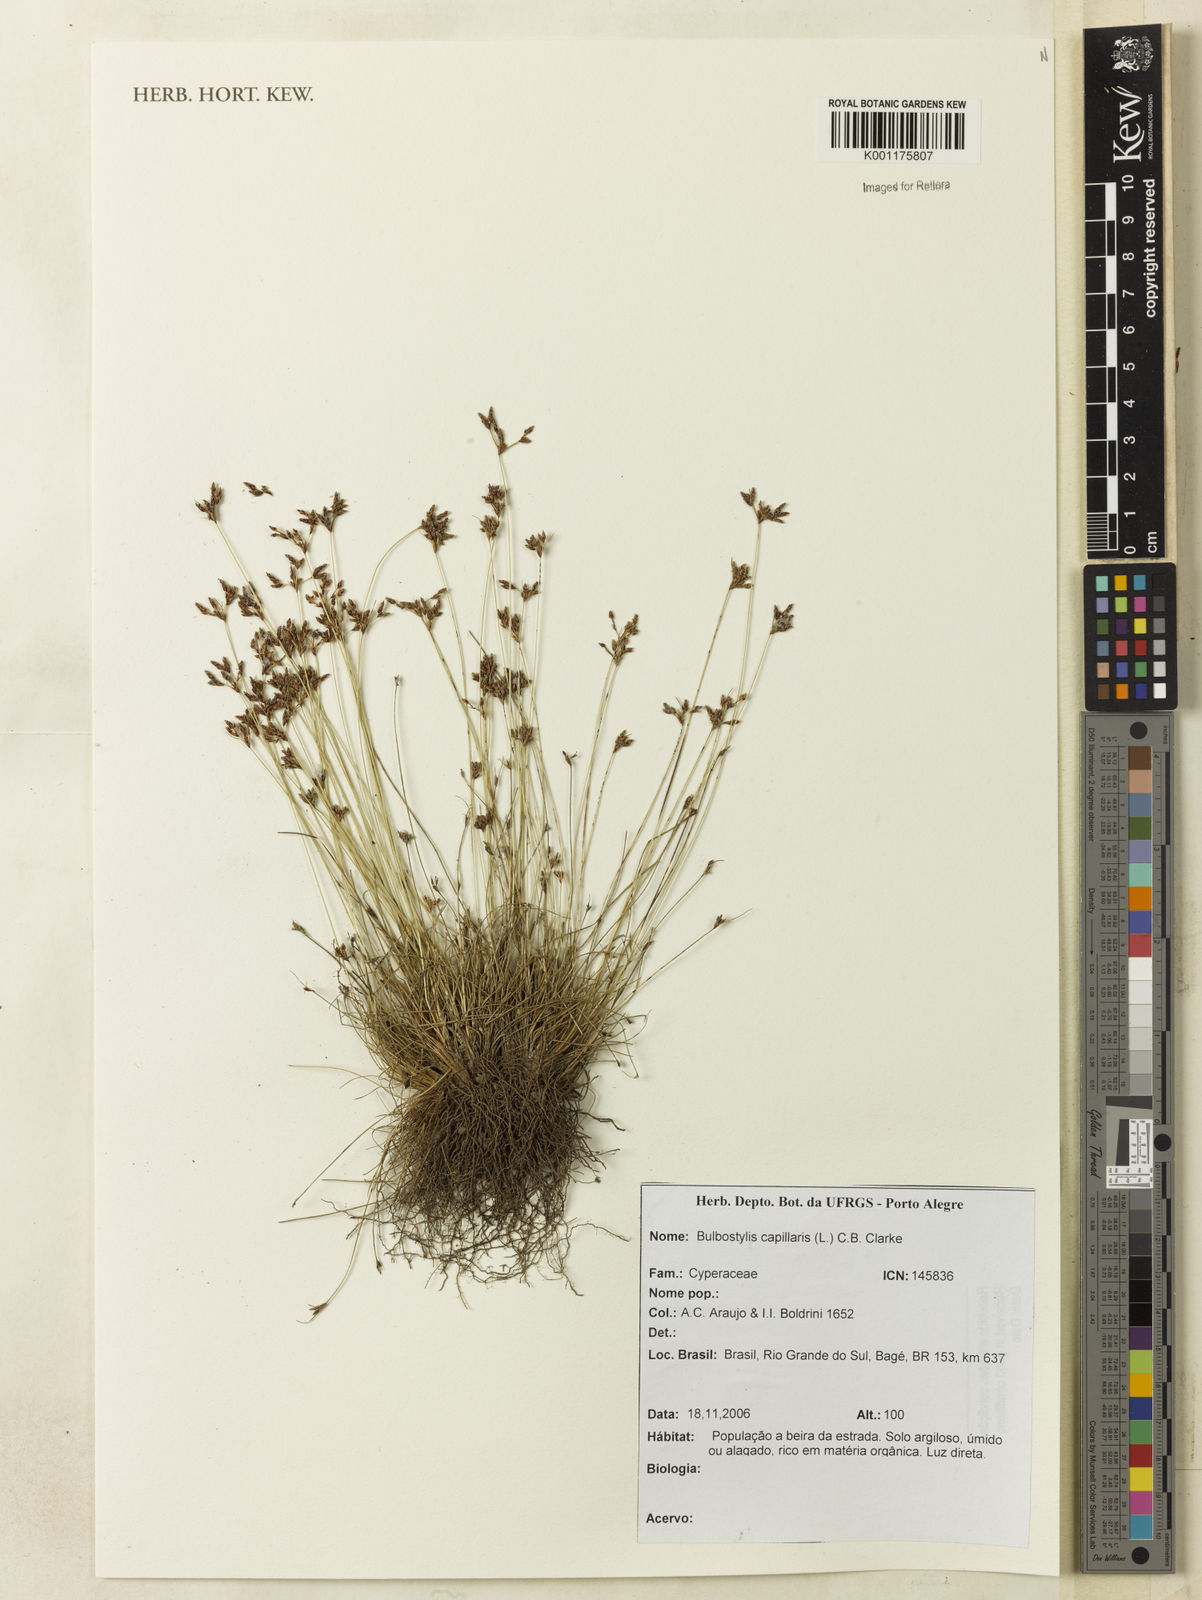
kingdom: Plantae
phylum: Tracheophyta
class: Liliopsida
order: Poales
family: Cyperaceae
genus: Bulbostylis
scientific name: Bulbostylis capillaris
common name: Densetuft hairsedge
